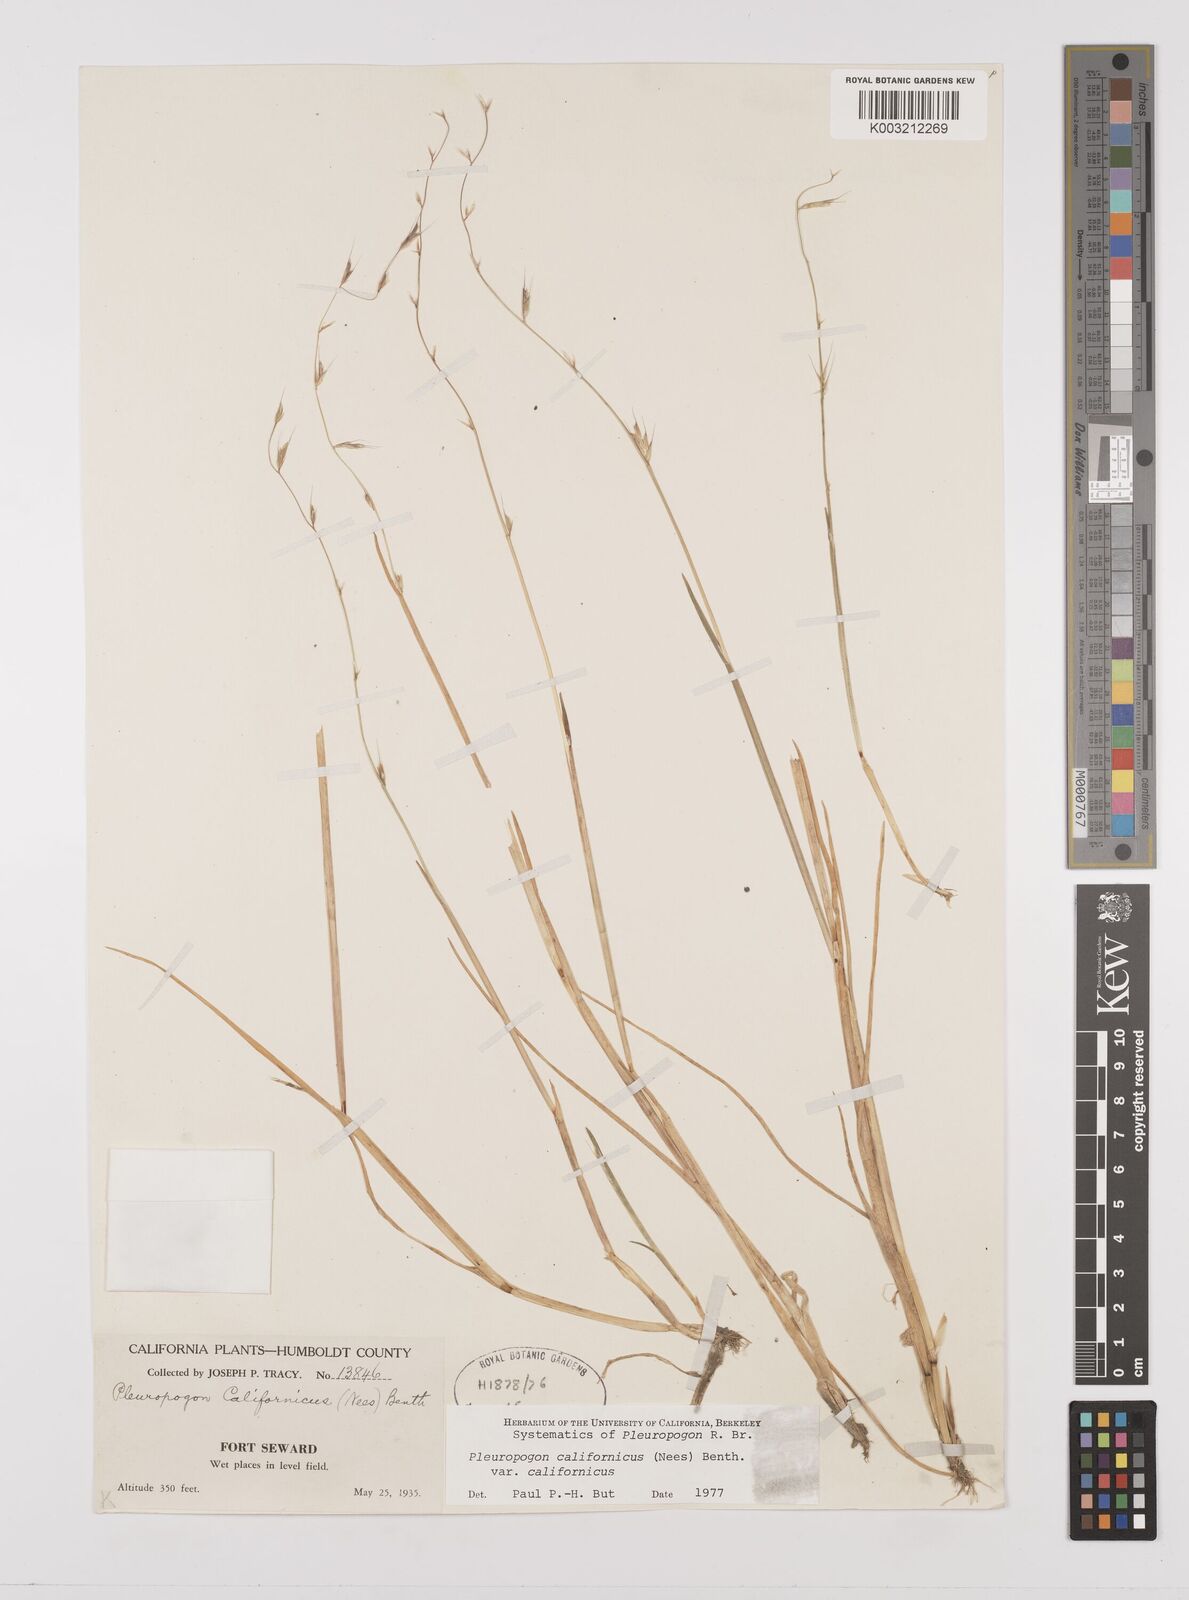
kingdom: Plantae
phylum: Tracheophyta
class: Liliopsida
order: Poales
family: Poaceae
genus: Pleuropogon
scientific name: Pleuropogon californicus
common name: California semaphore grass
